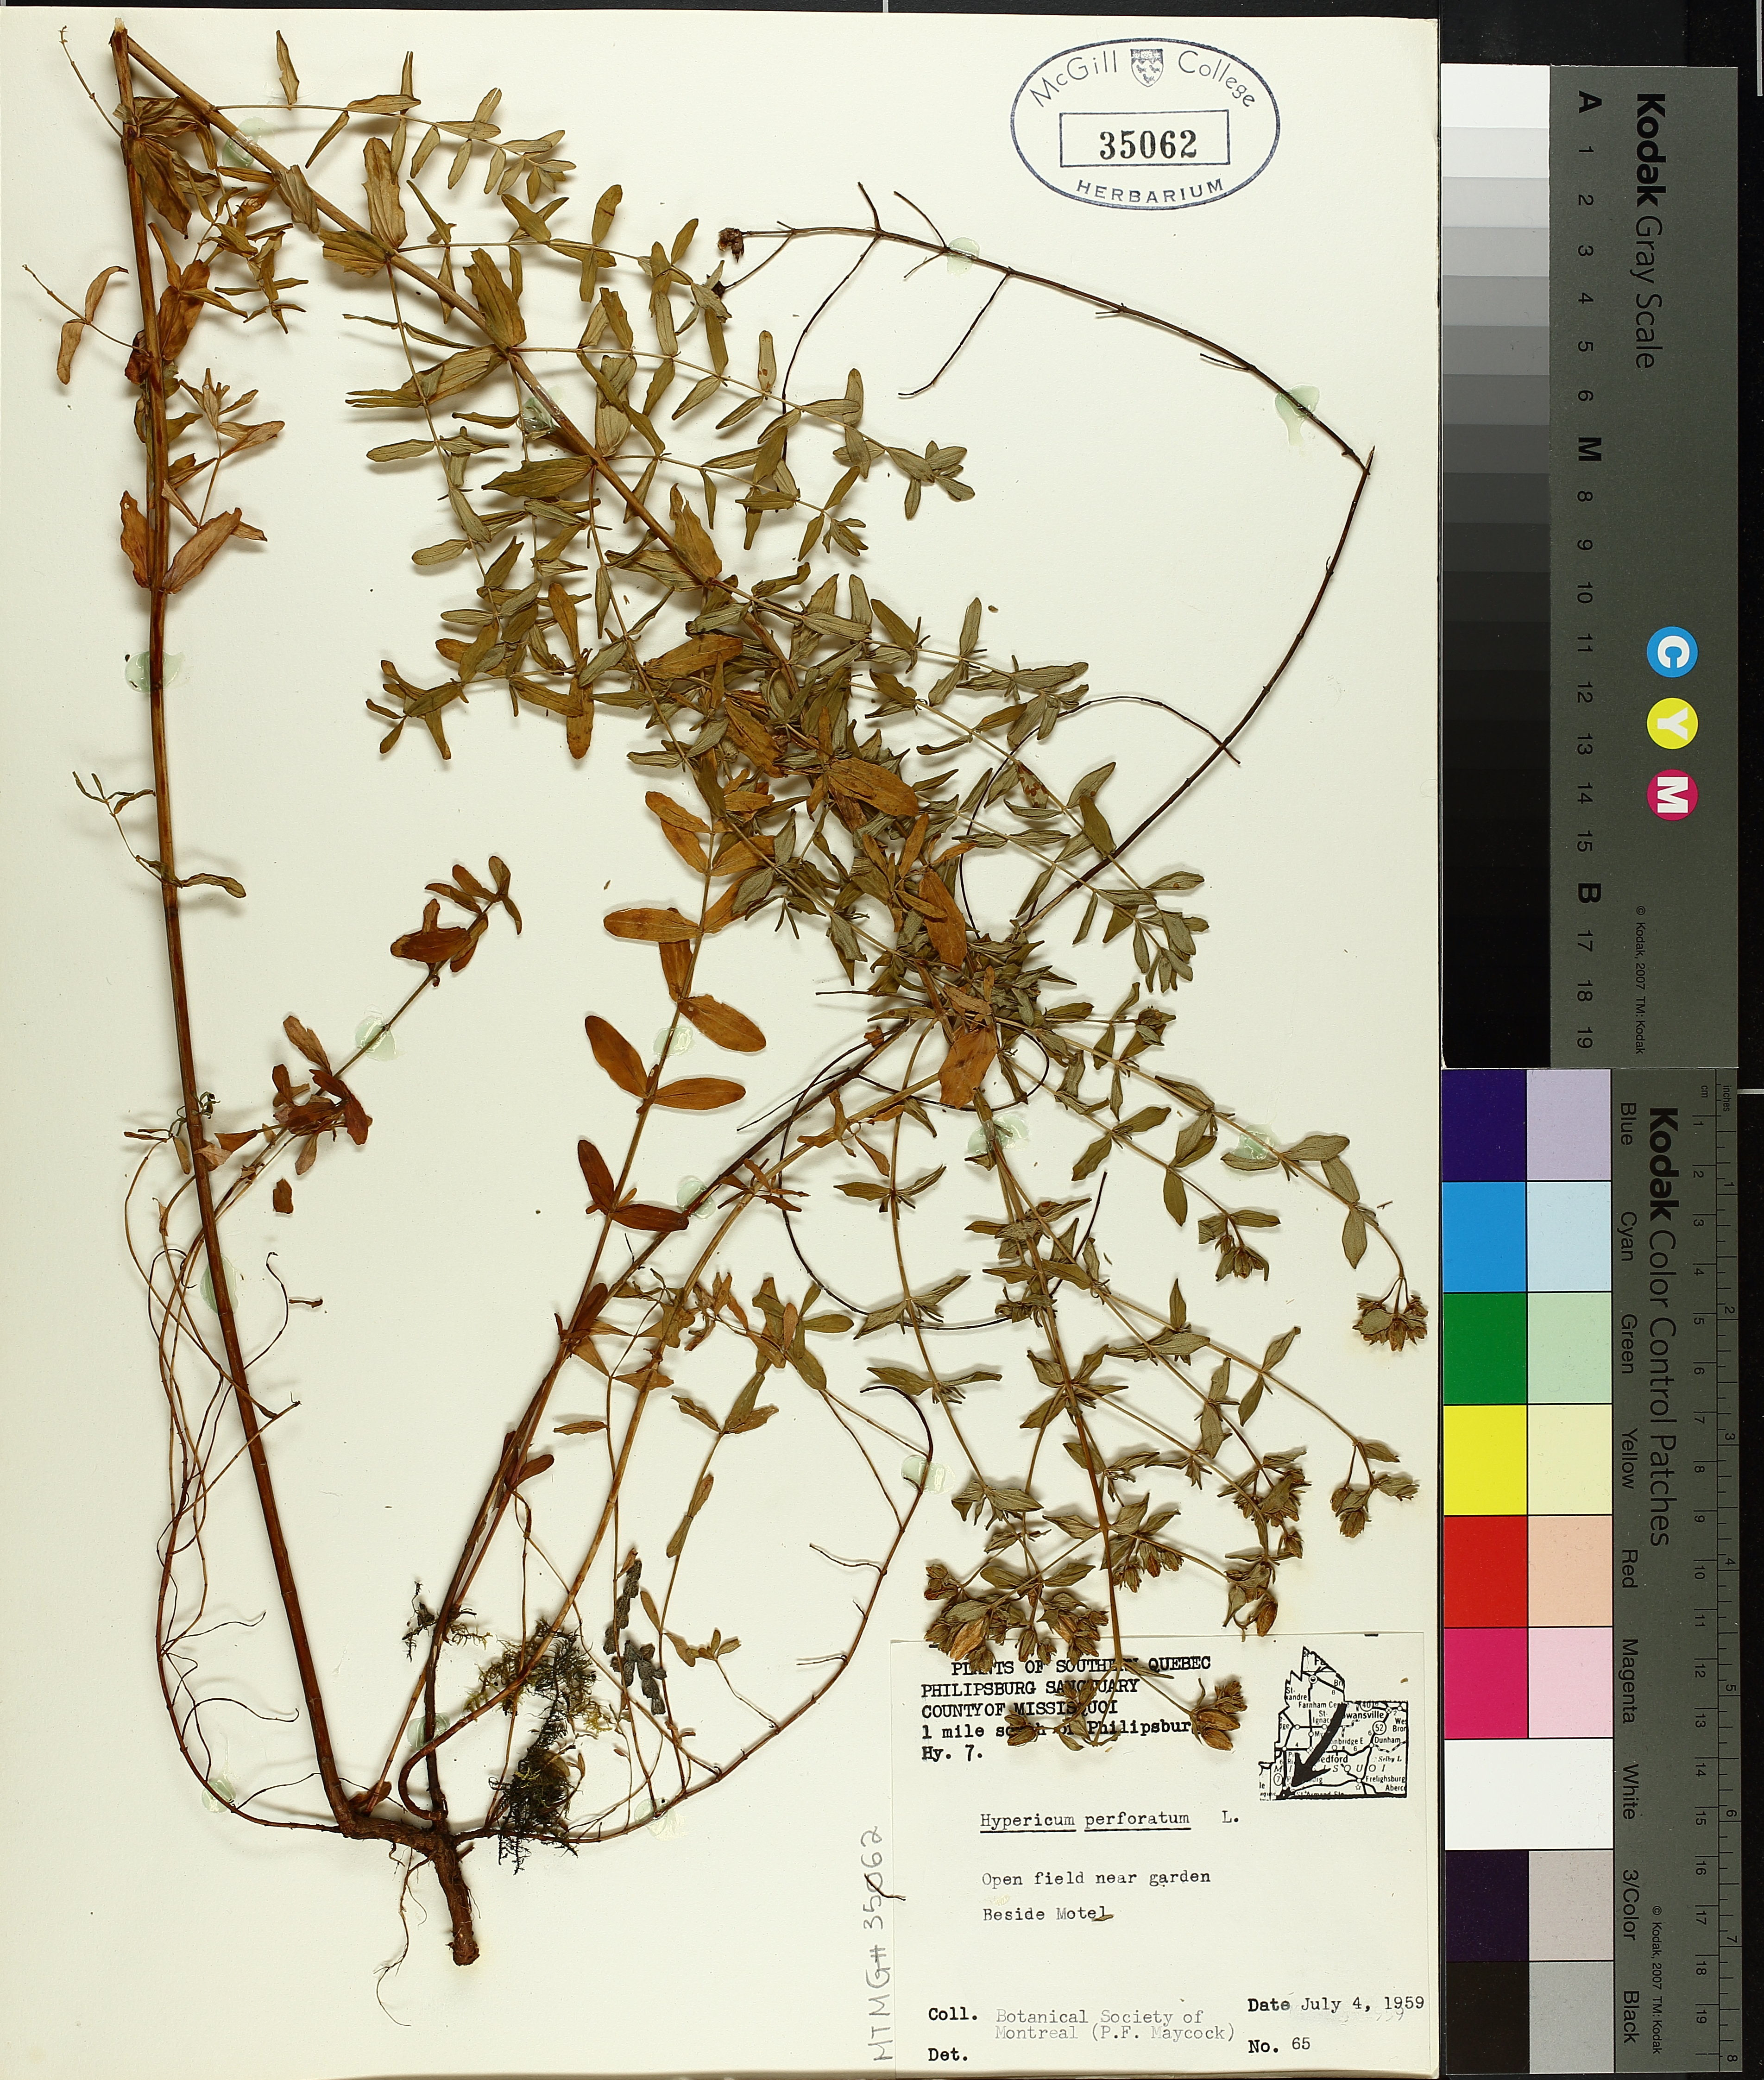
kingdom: Plantae
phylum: Tracheophyta
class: Magnoliopsida
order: Malpighiales
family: Hypericaceae
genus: Hypericum
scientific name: Hypericum perforatum
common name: Common st. johnswort
